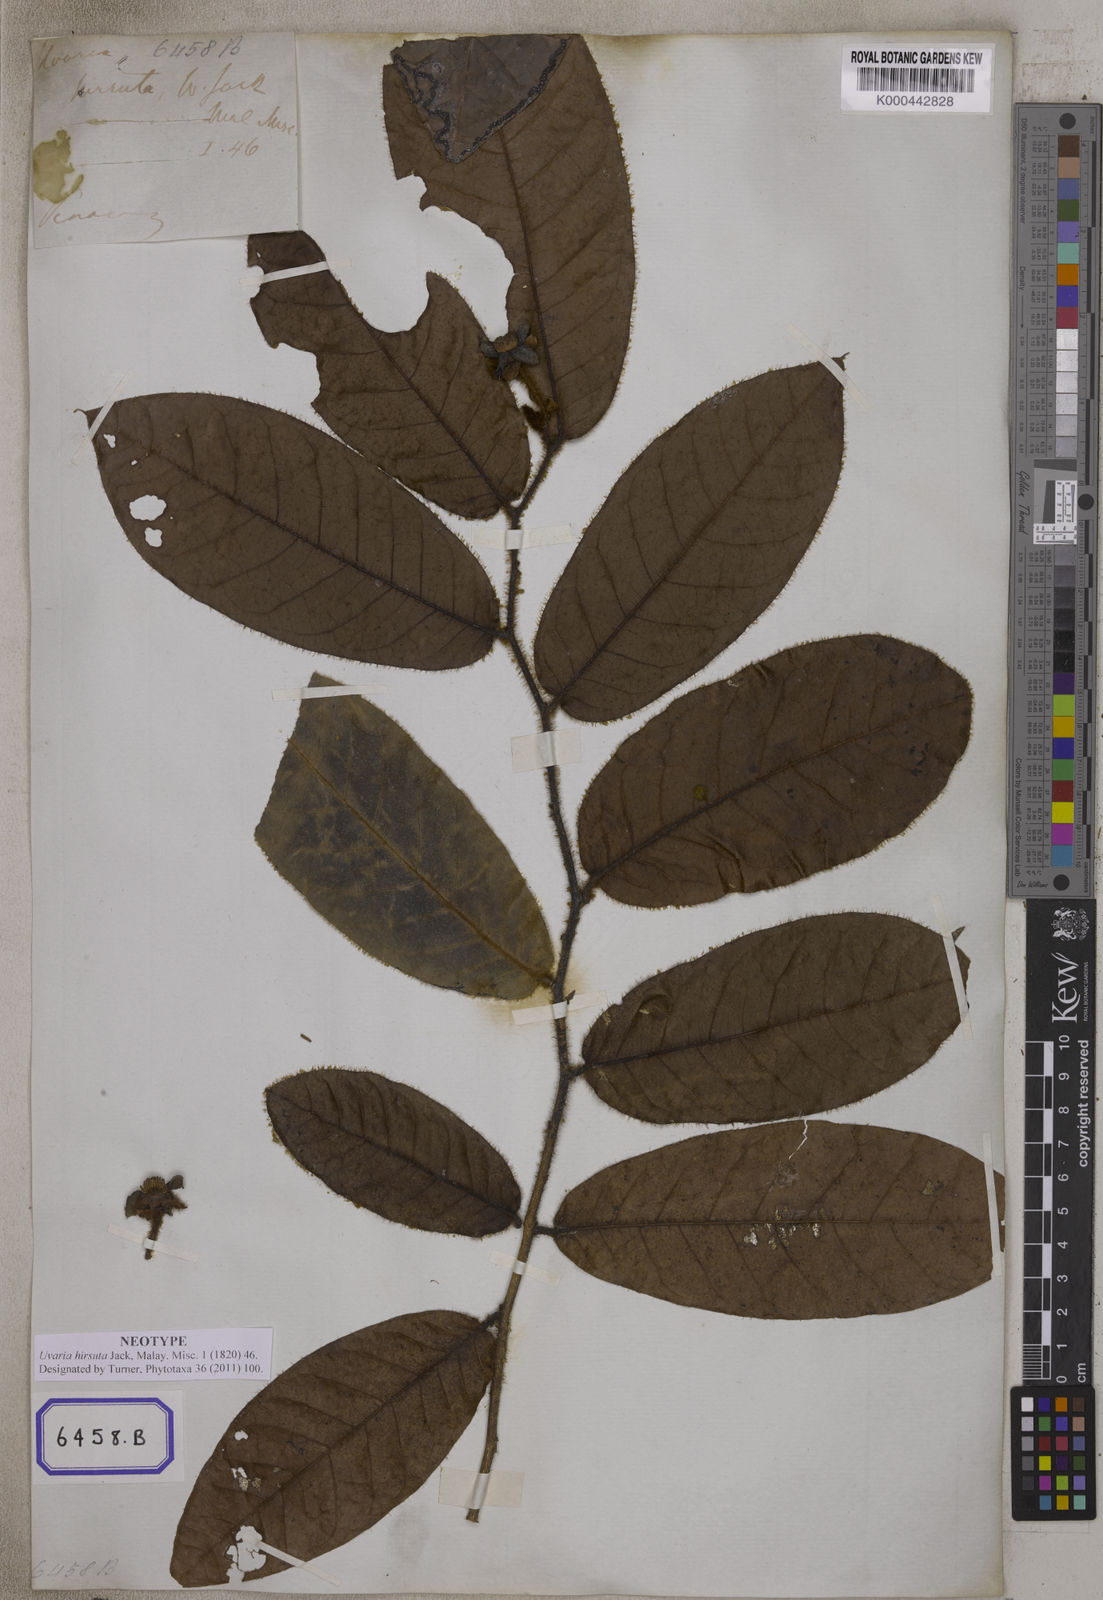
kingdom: Plantae
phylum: Tracheophyta
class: Magnoliopsida
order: Magnoliales
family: Annonaceae
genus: Uvaria
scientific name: Uvaria hirsuta
